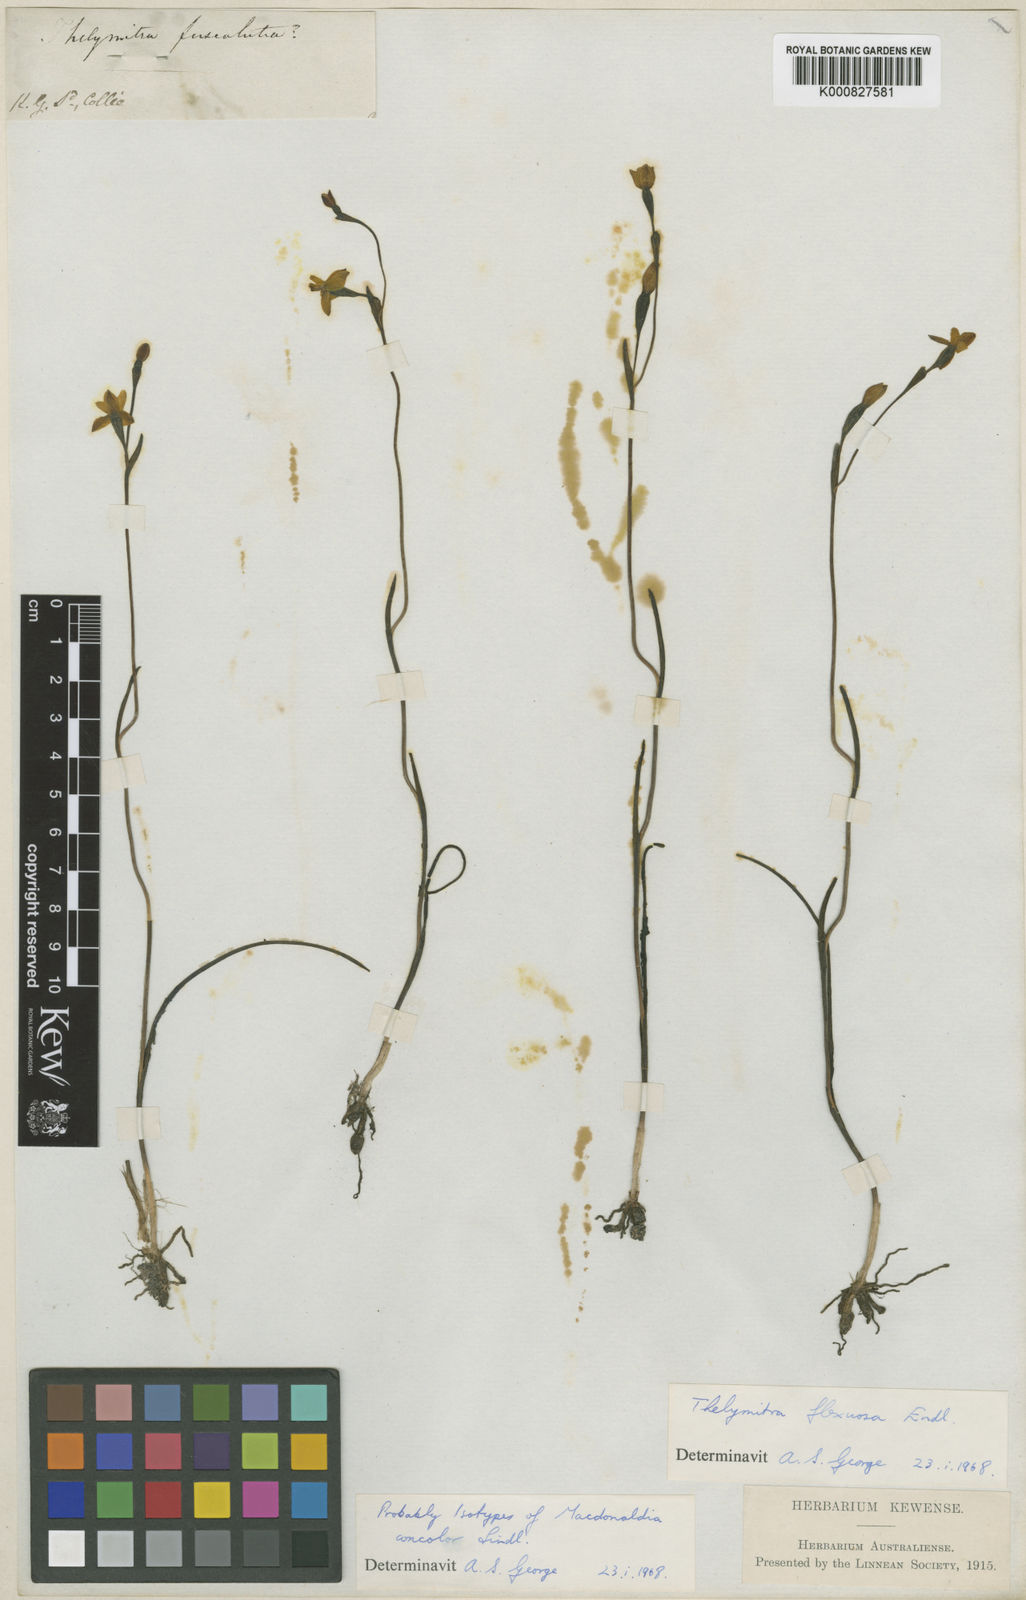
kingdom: Plantae
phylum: Tracheophyta
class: Liliopsida
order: Asparagales
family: Orchidaceae
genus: Thelymitra
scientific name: Thelymitra flexuosa
